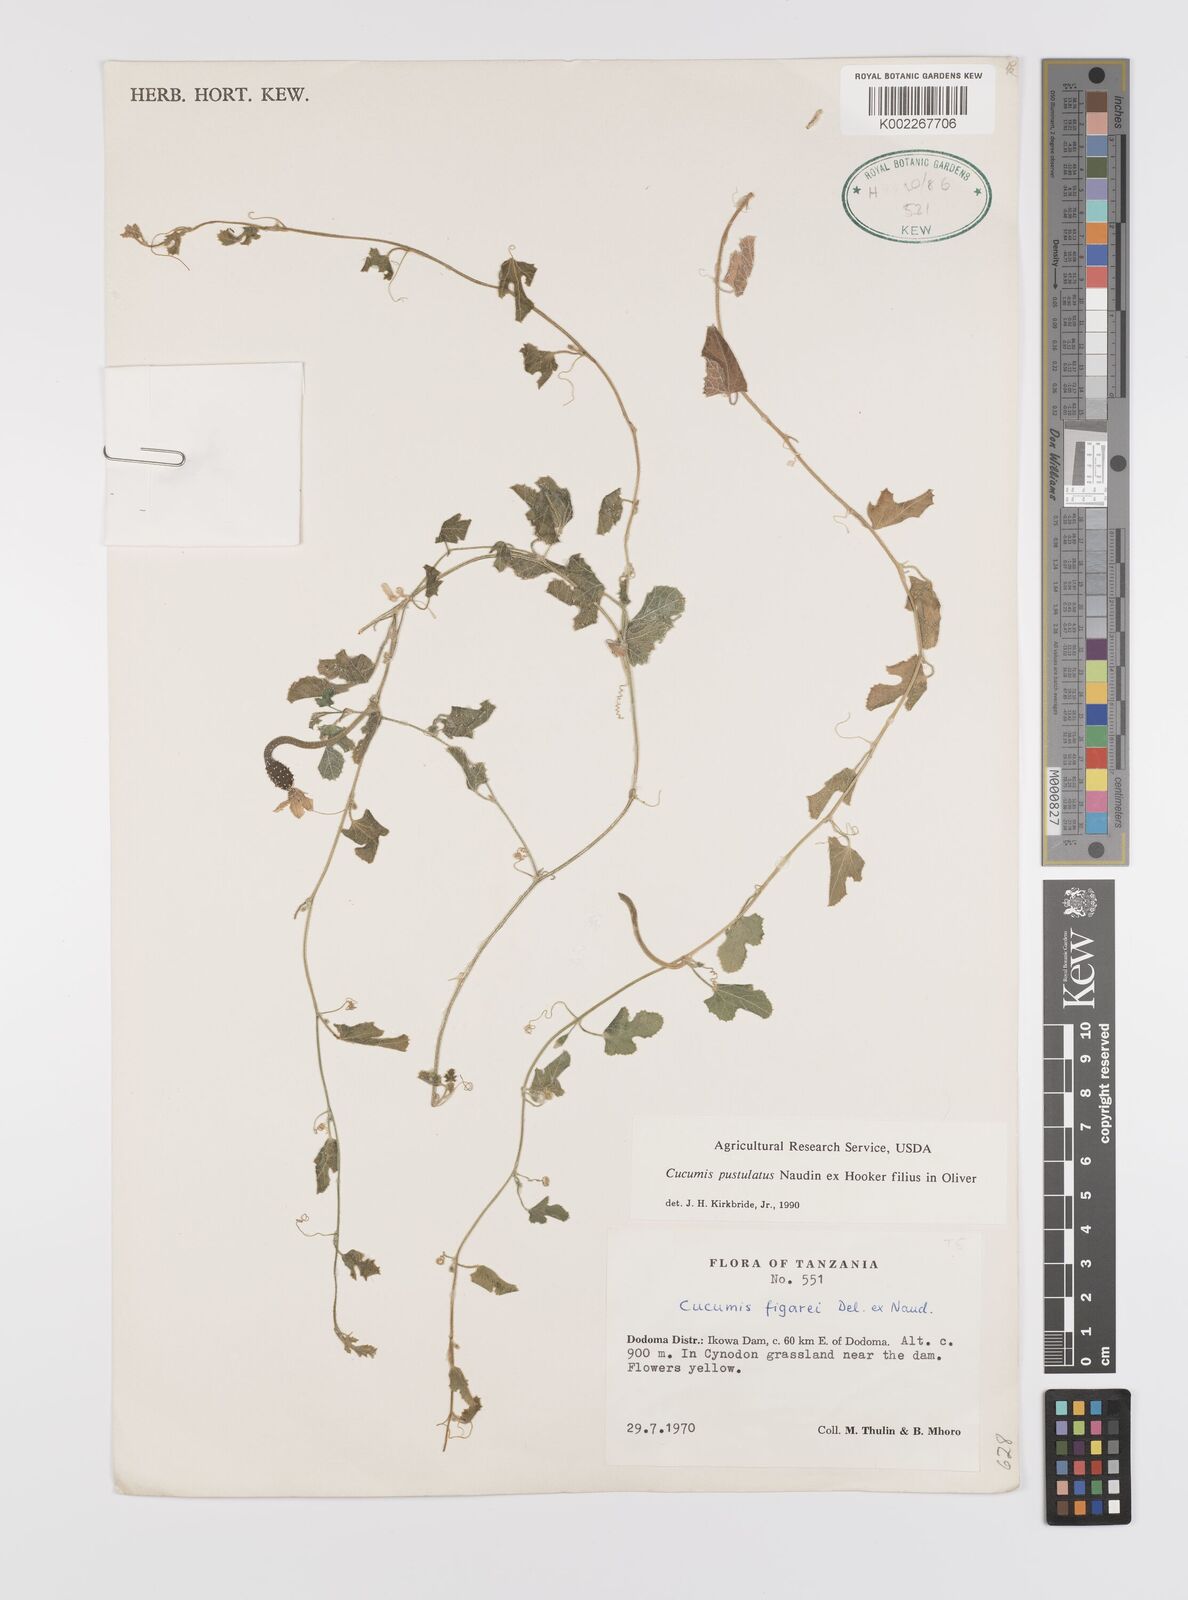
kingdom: Plantae
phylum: Tracheophyta
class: Magnoliopsida
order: Cucurbitales
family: Cucurbitaceae
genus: Cucumis
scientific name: Cucumis pustulatus
